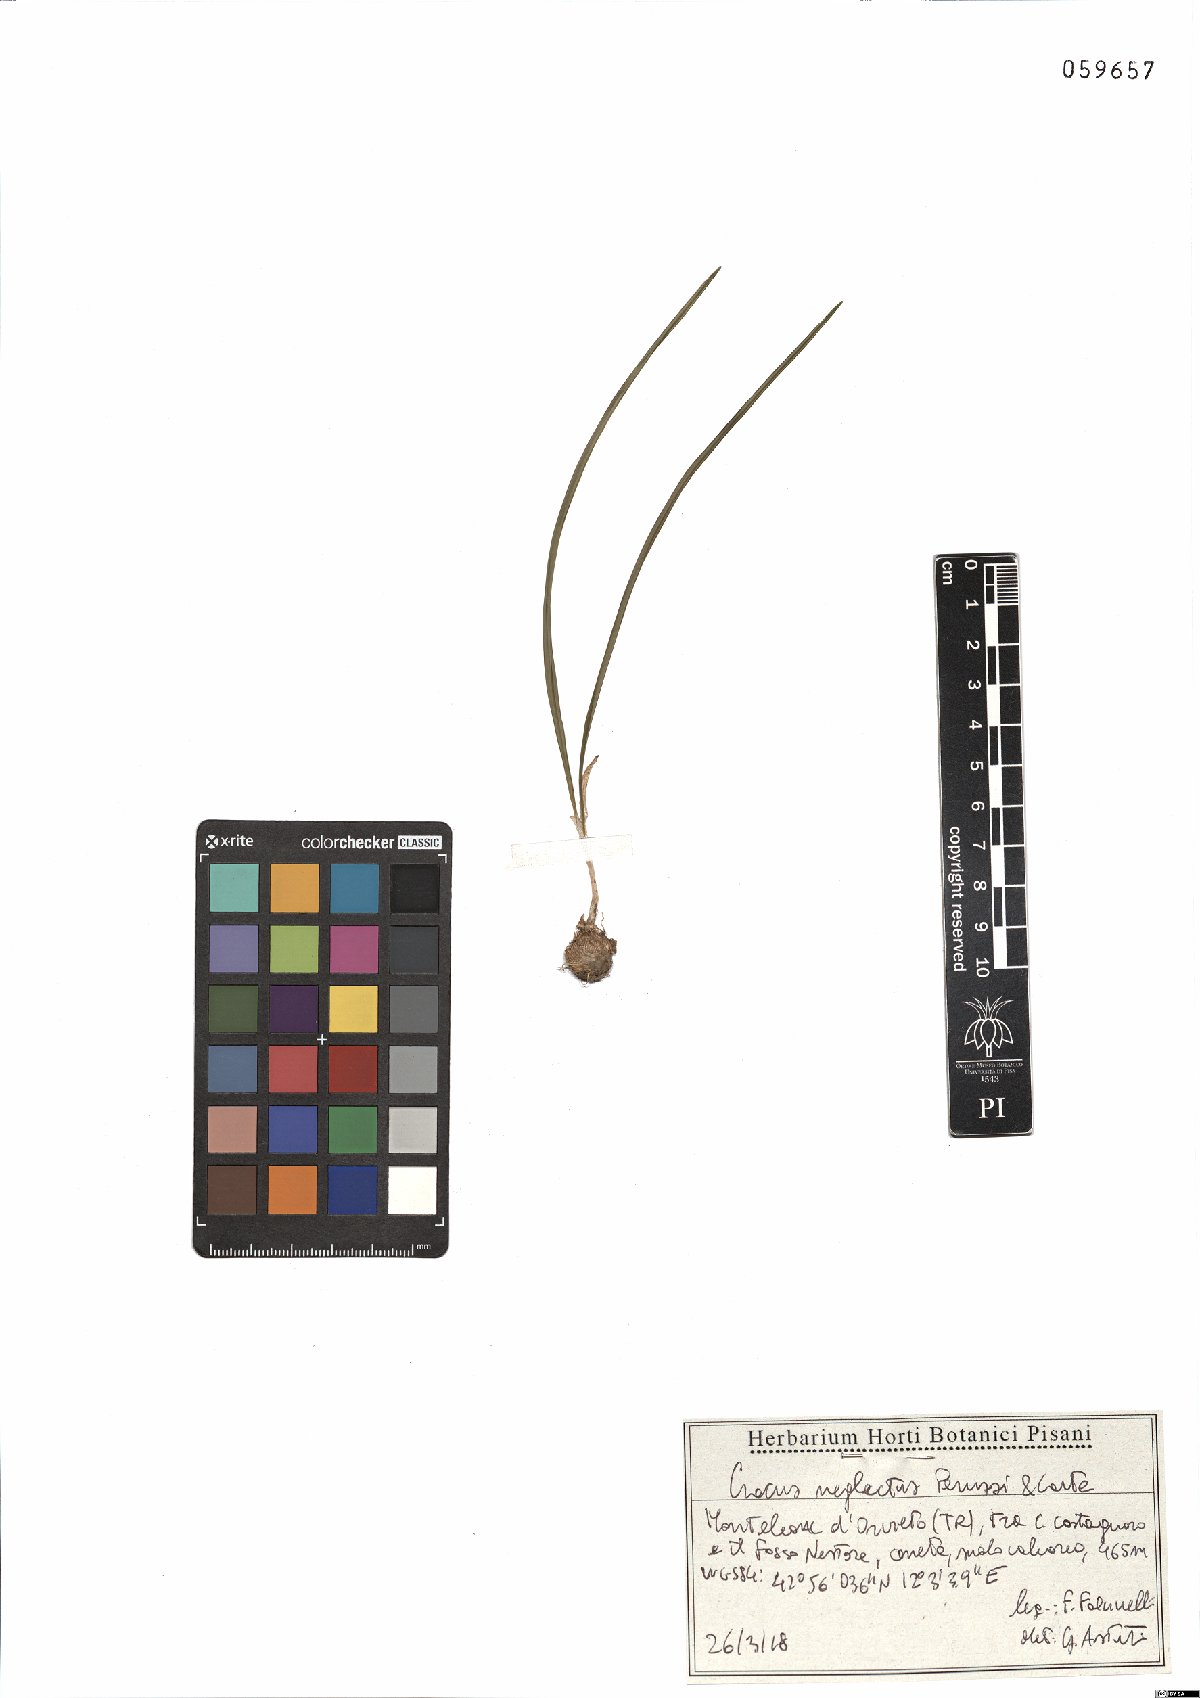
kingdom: Plantae
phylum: Tracheophyta
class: Liliopsida
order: Asparagales
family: Iridaceae
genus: Crocus
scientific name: Crocus neglectus
